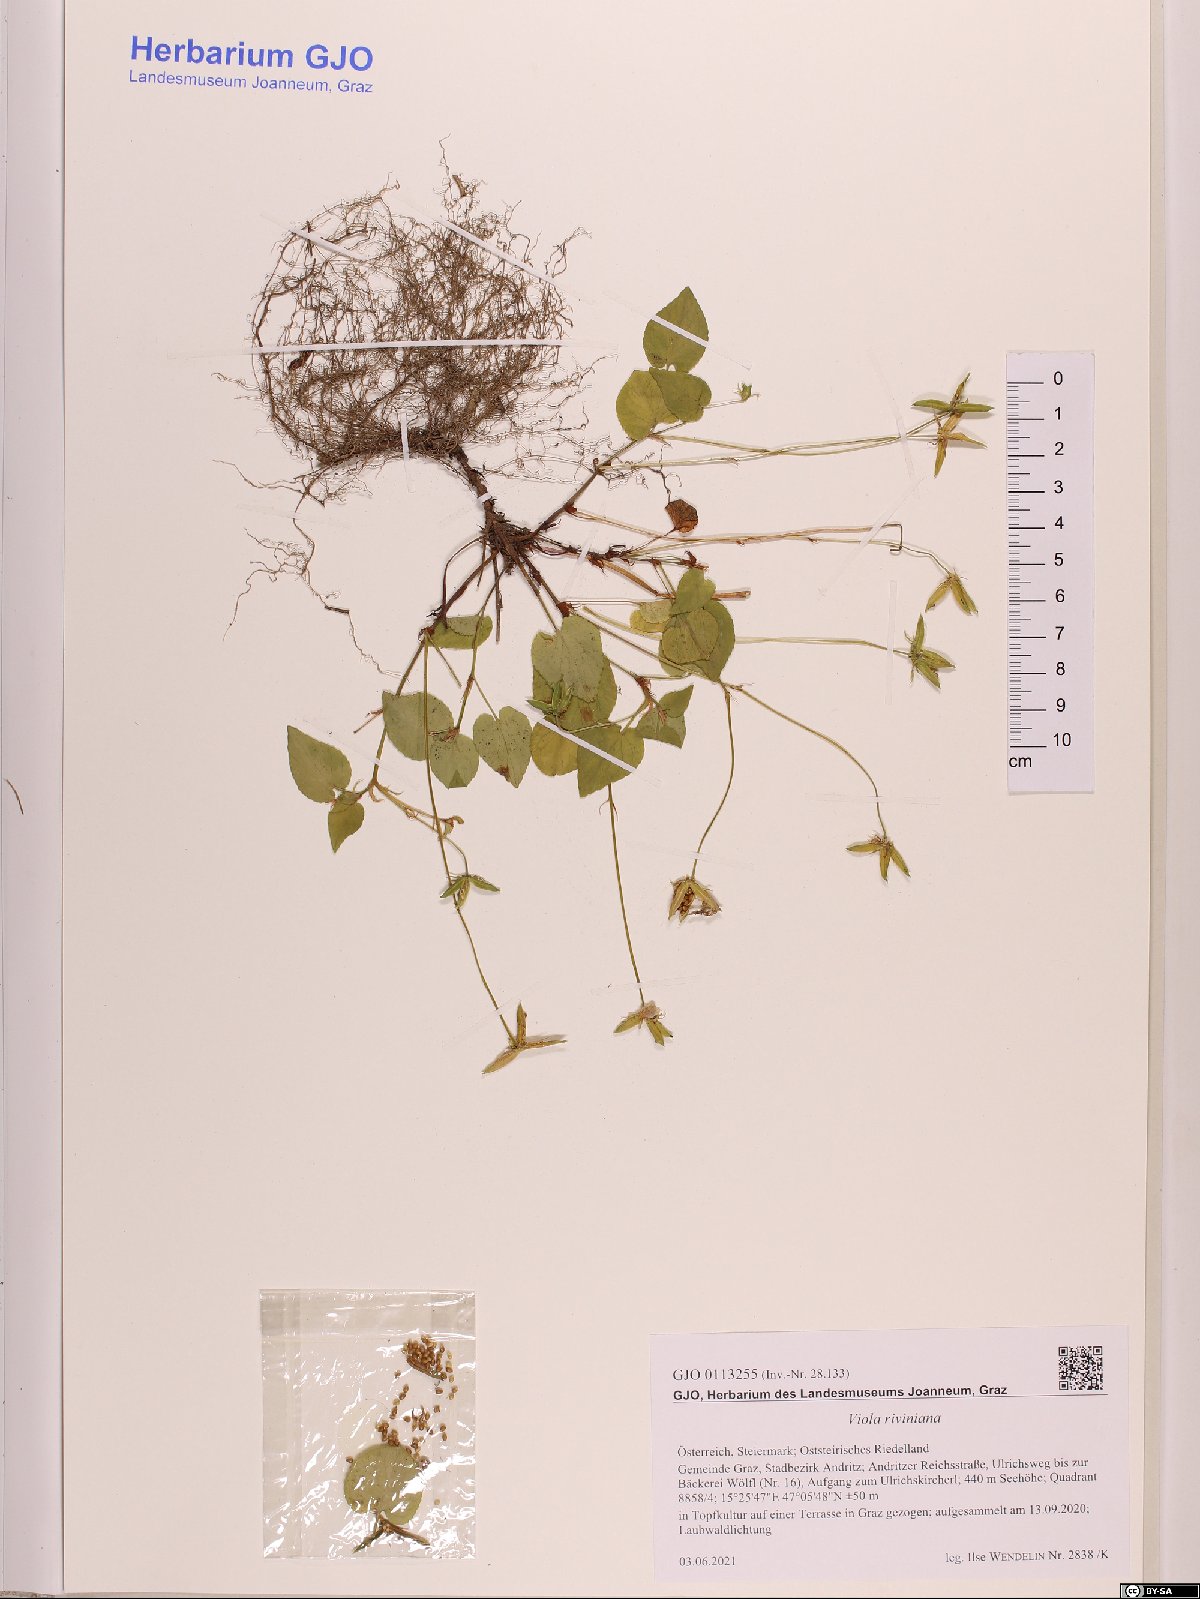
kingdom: Plantae
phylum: Tracheophyta
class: Magnoliopsida
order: Malpighiales
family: Violaceae
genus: Viola
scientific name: Viola riviniana
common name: Common dog-violet
